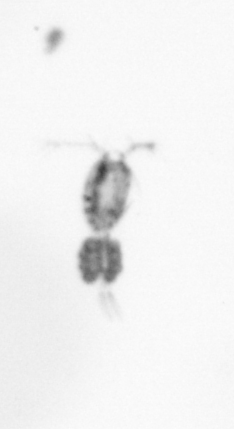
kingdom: Animalia
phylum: Arthropoda
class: Copepoda
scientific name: Copepoda
